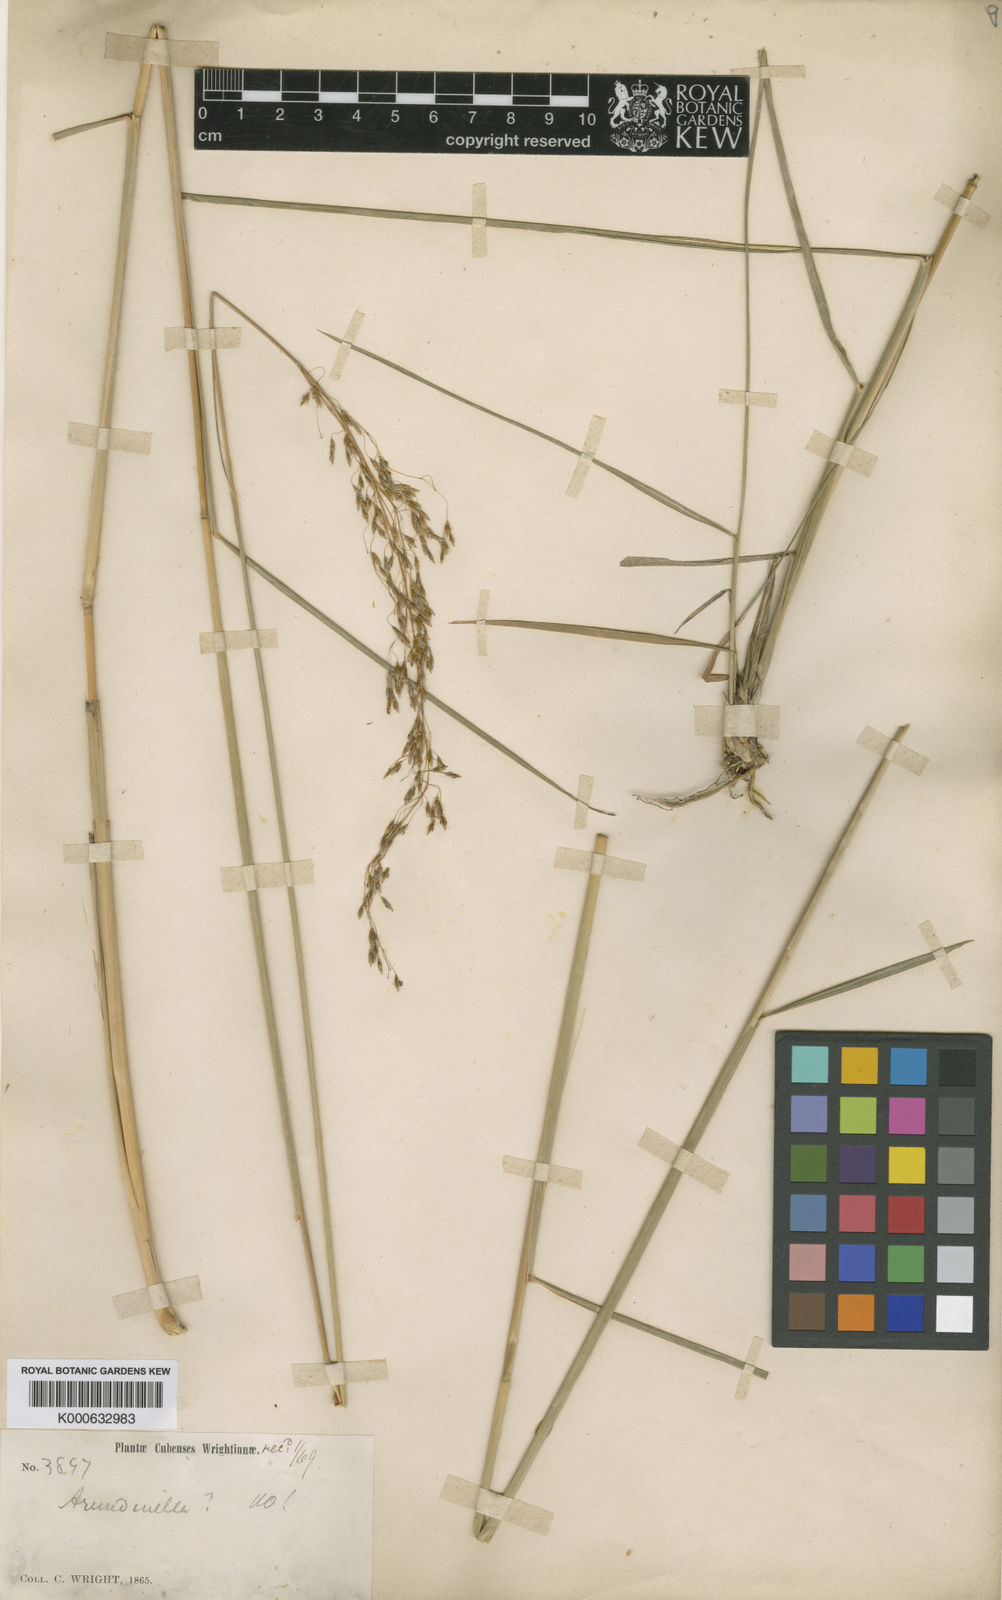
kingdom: Plantae
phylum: Tracheophyta
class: Liliopsida
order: Poales
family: Poaceae
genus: Sorghastrum
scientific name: Sorghastrum setosum
